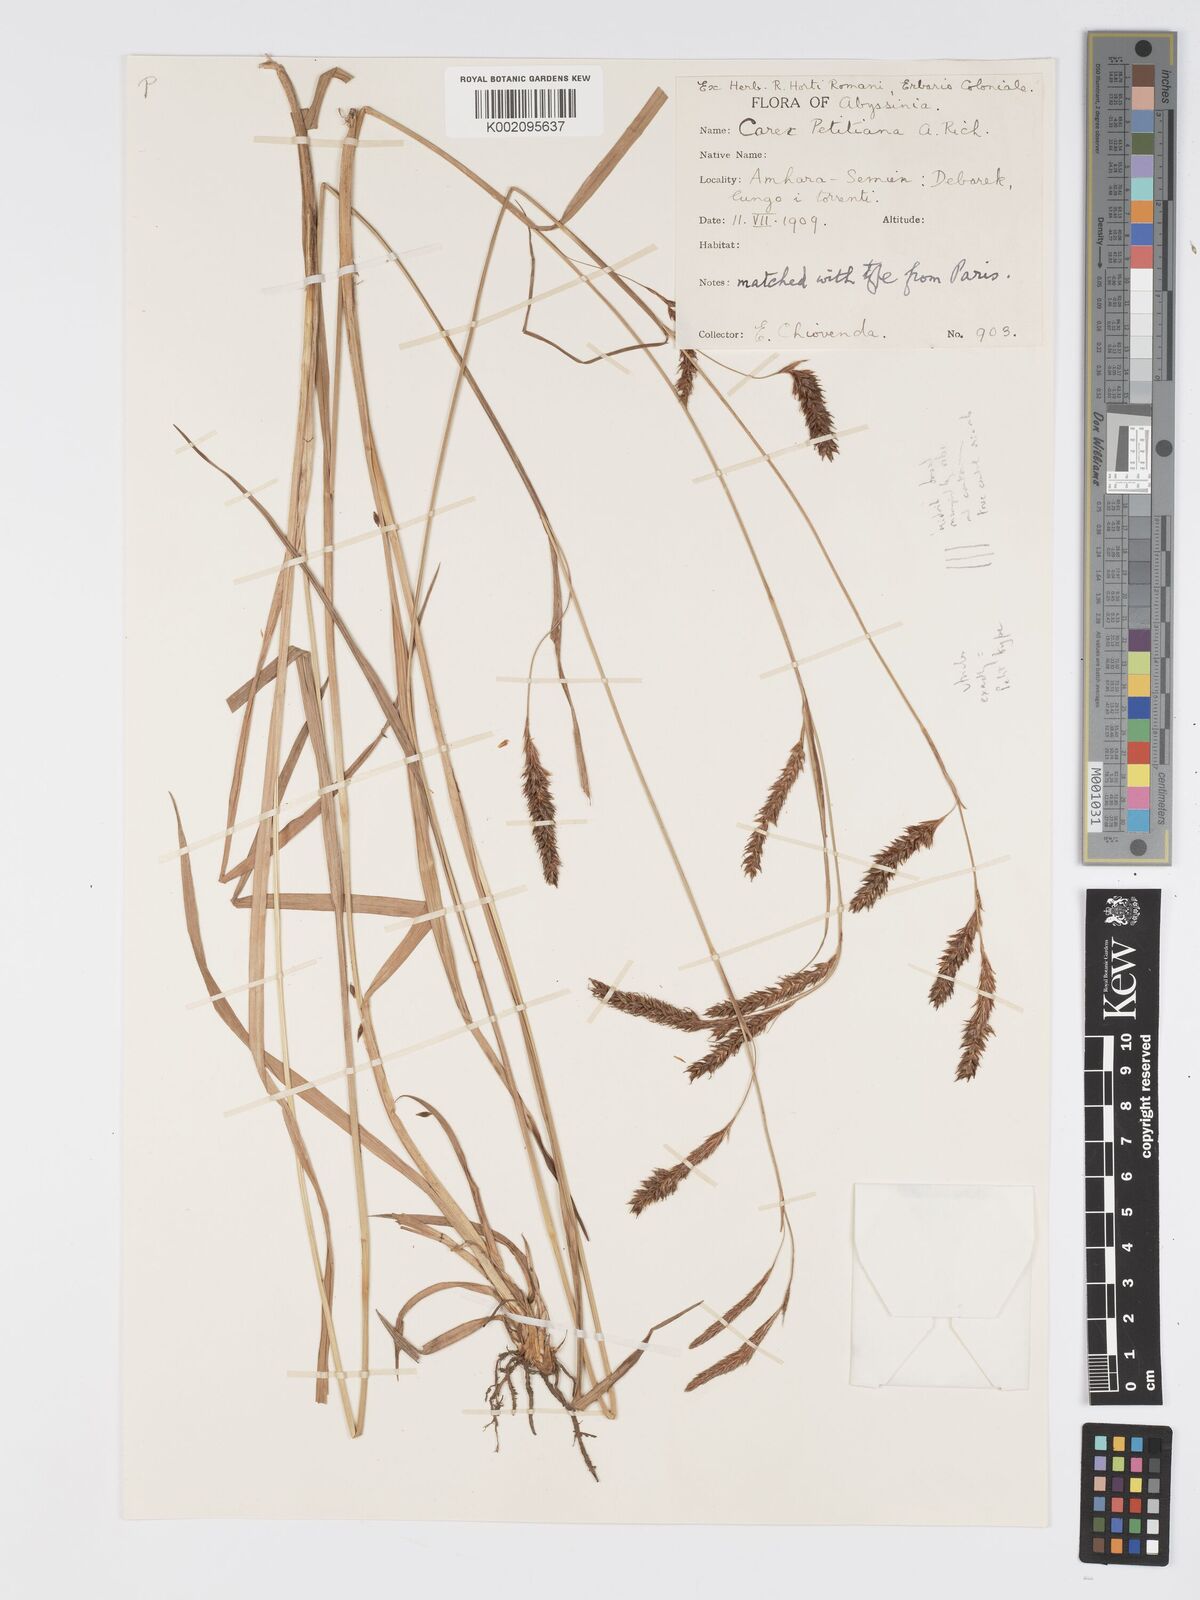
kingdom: Plantae
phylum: Tracheophyta
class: Liliopsida
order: Poales
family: Cyperaceae
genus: Carex
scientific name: Carex petitiana
